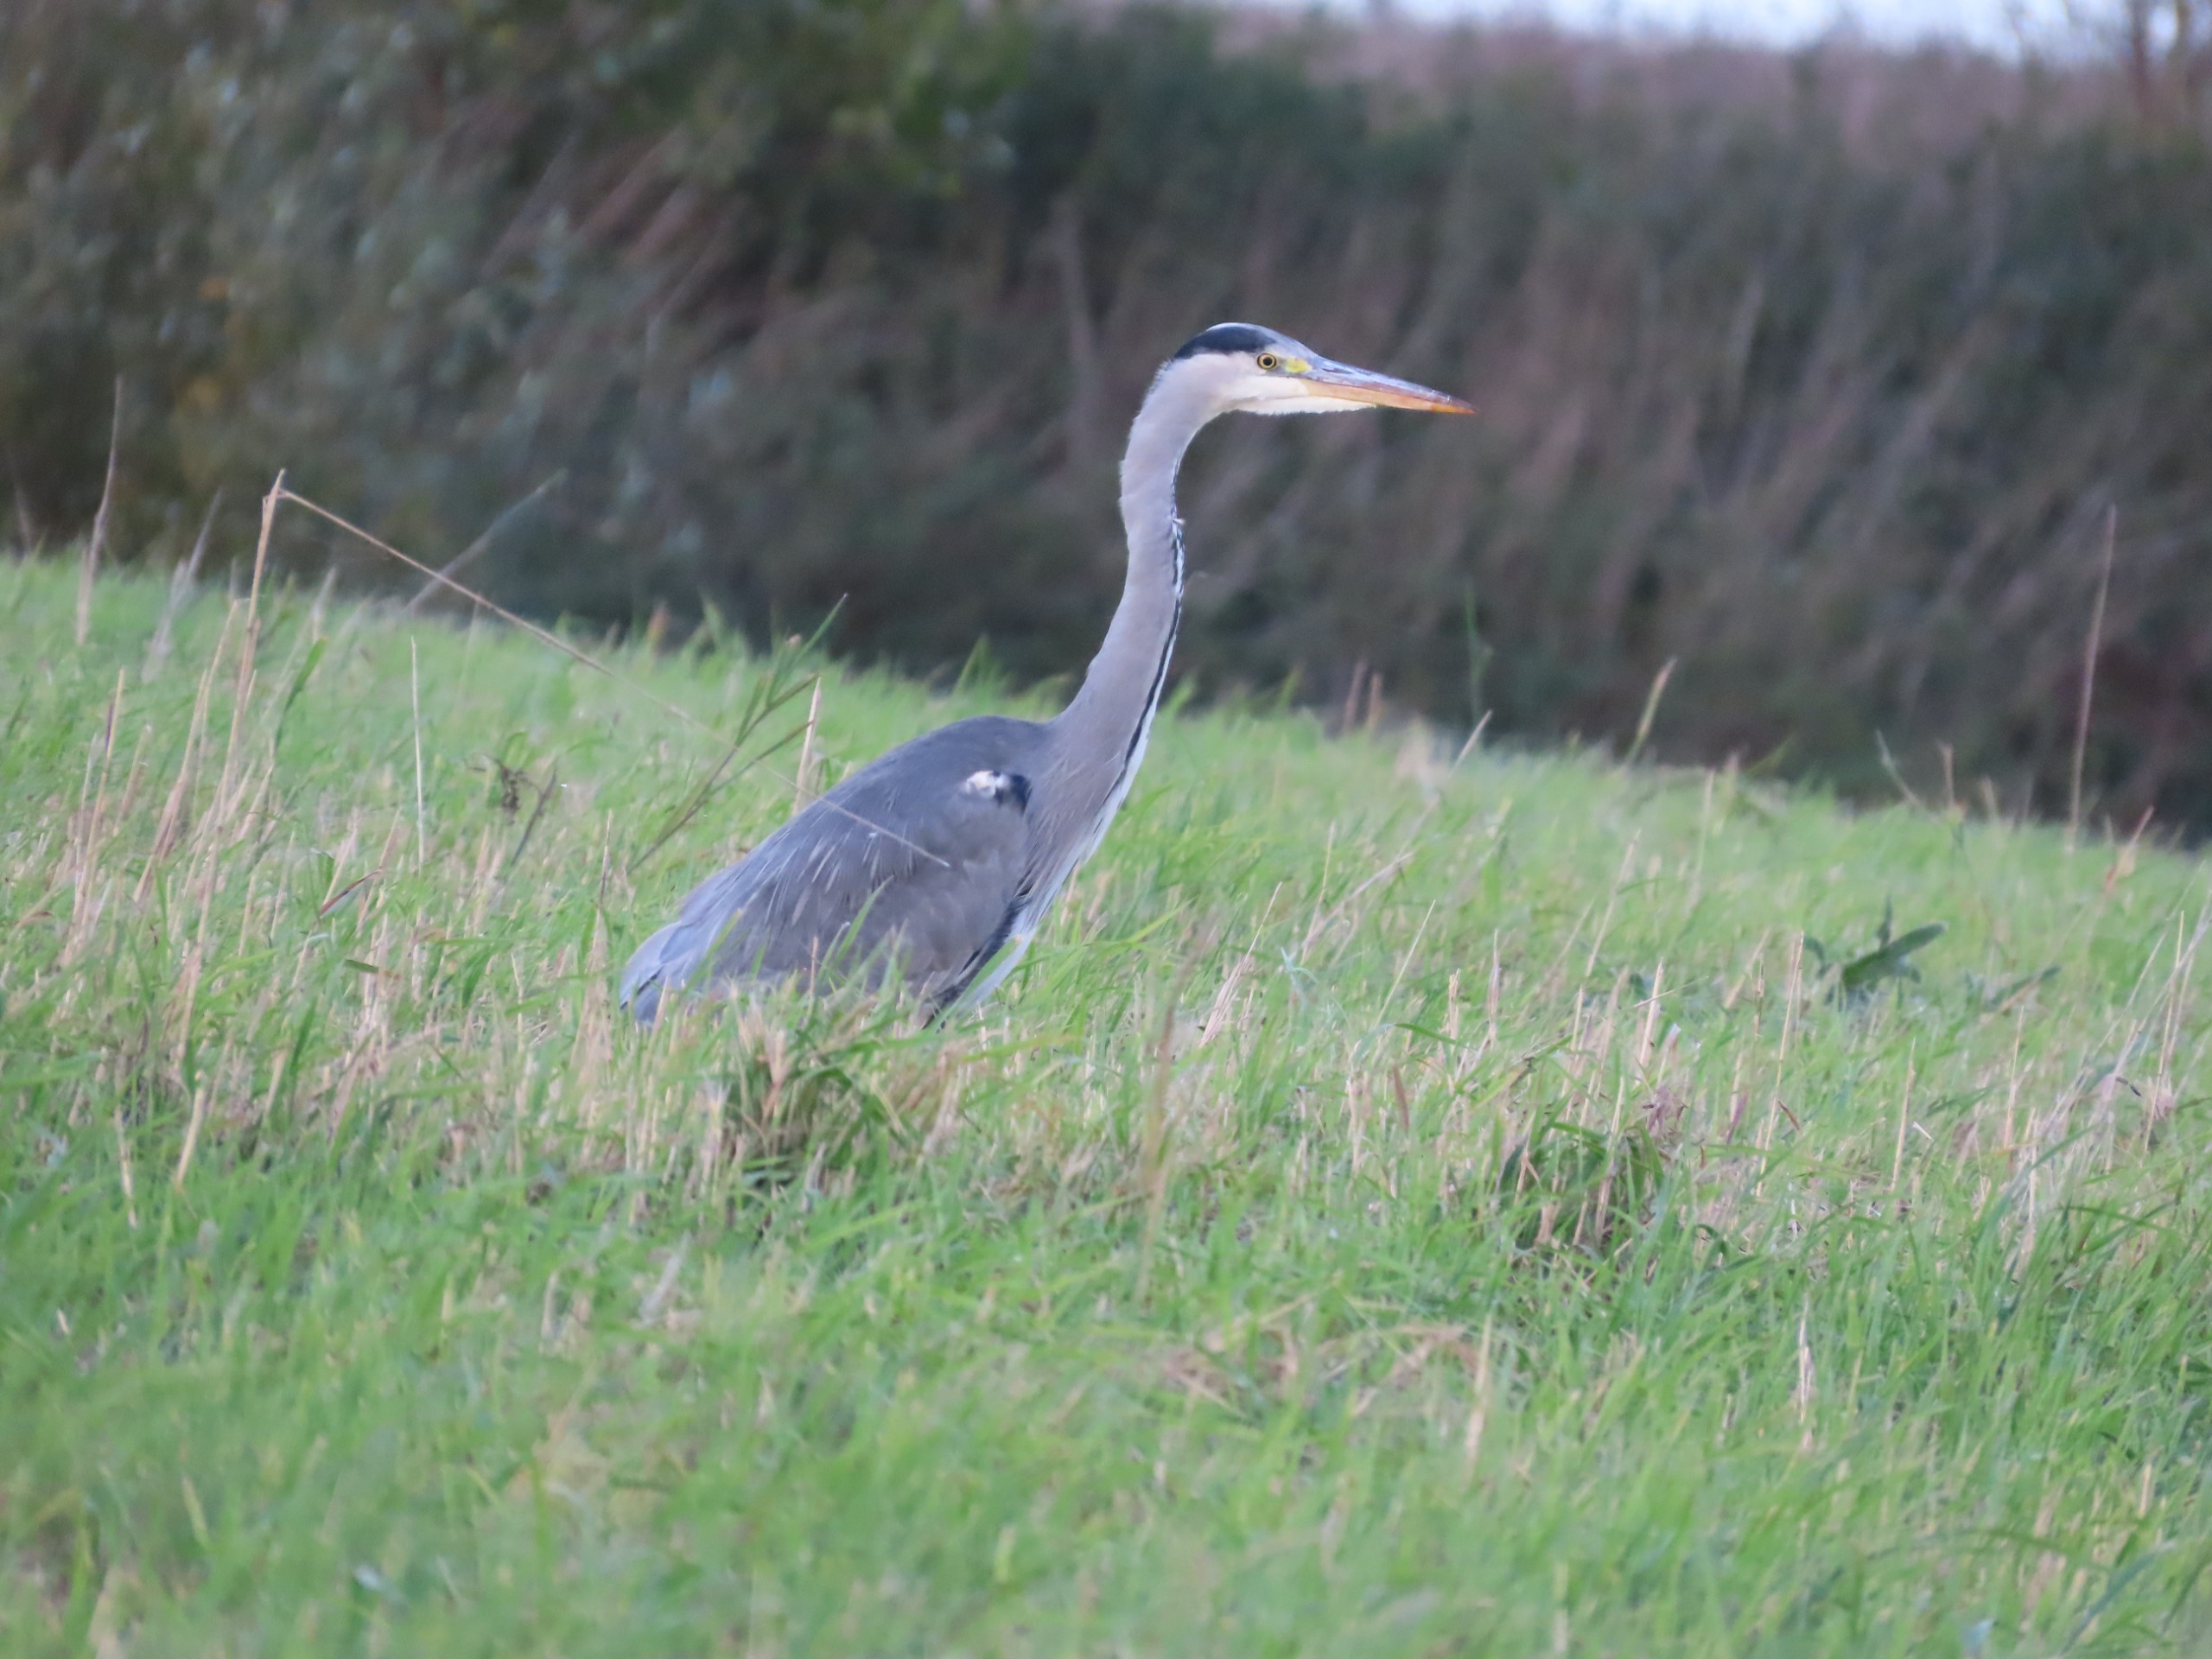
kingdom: Animalia
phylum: Chordata
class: Aves
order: Pelecaniformes
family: Ardeidae
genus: Ardea
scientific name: Ardea cinerea
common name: Fiskehejre
